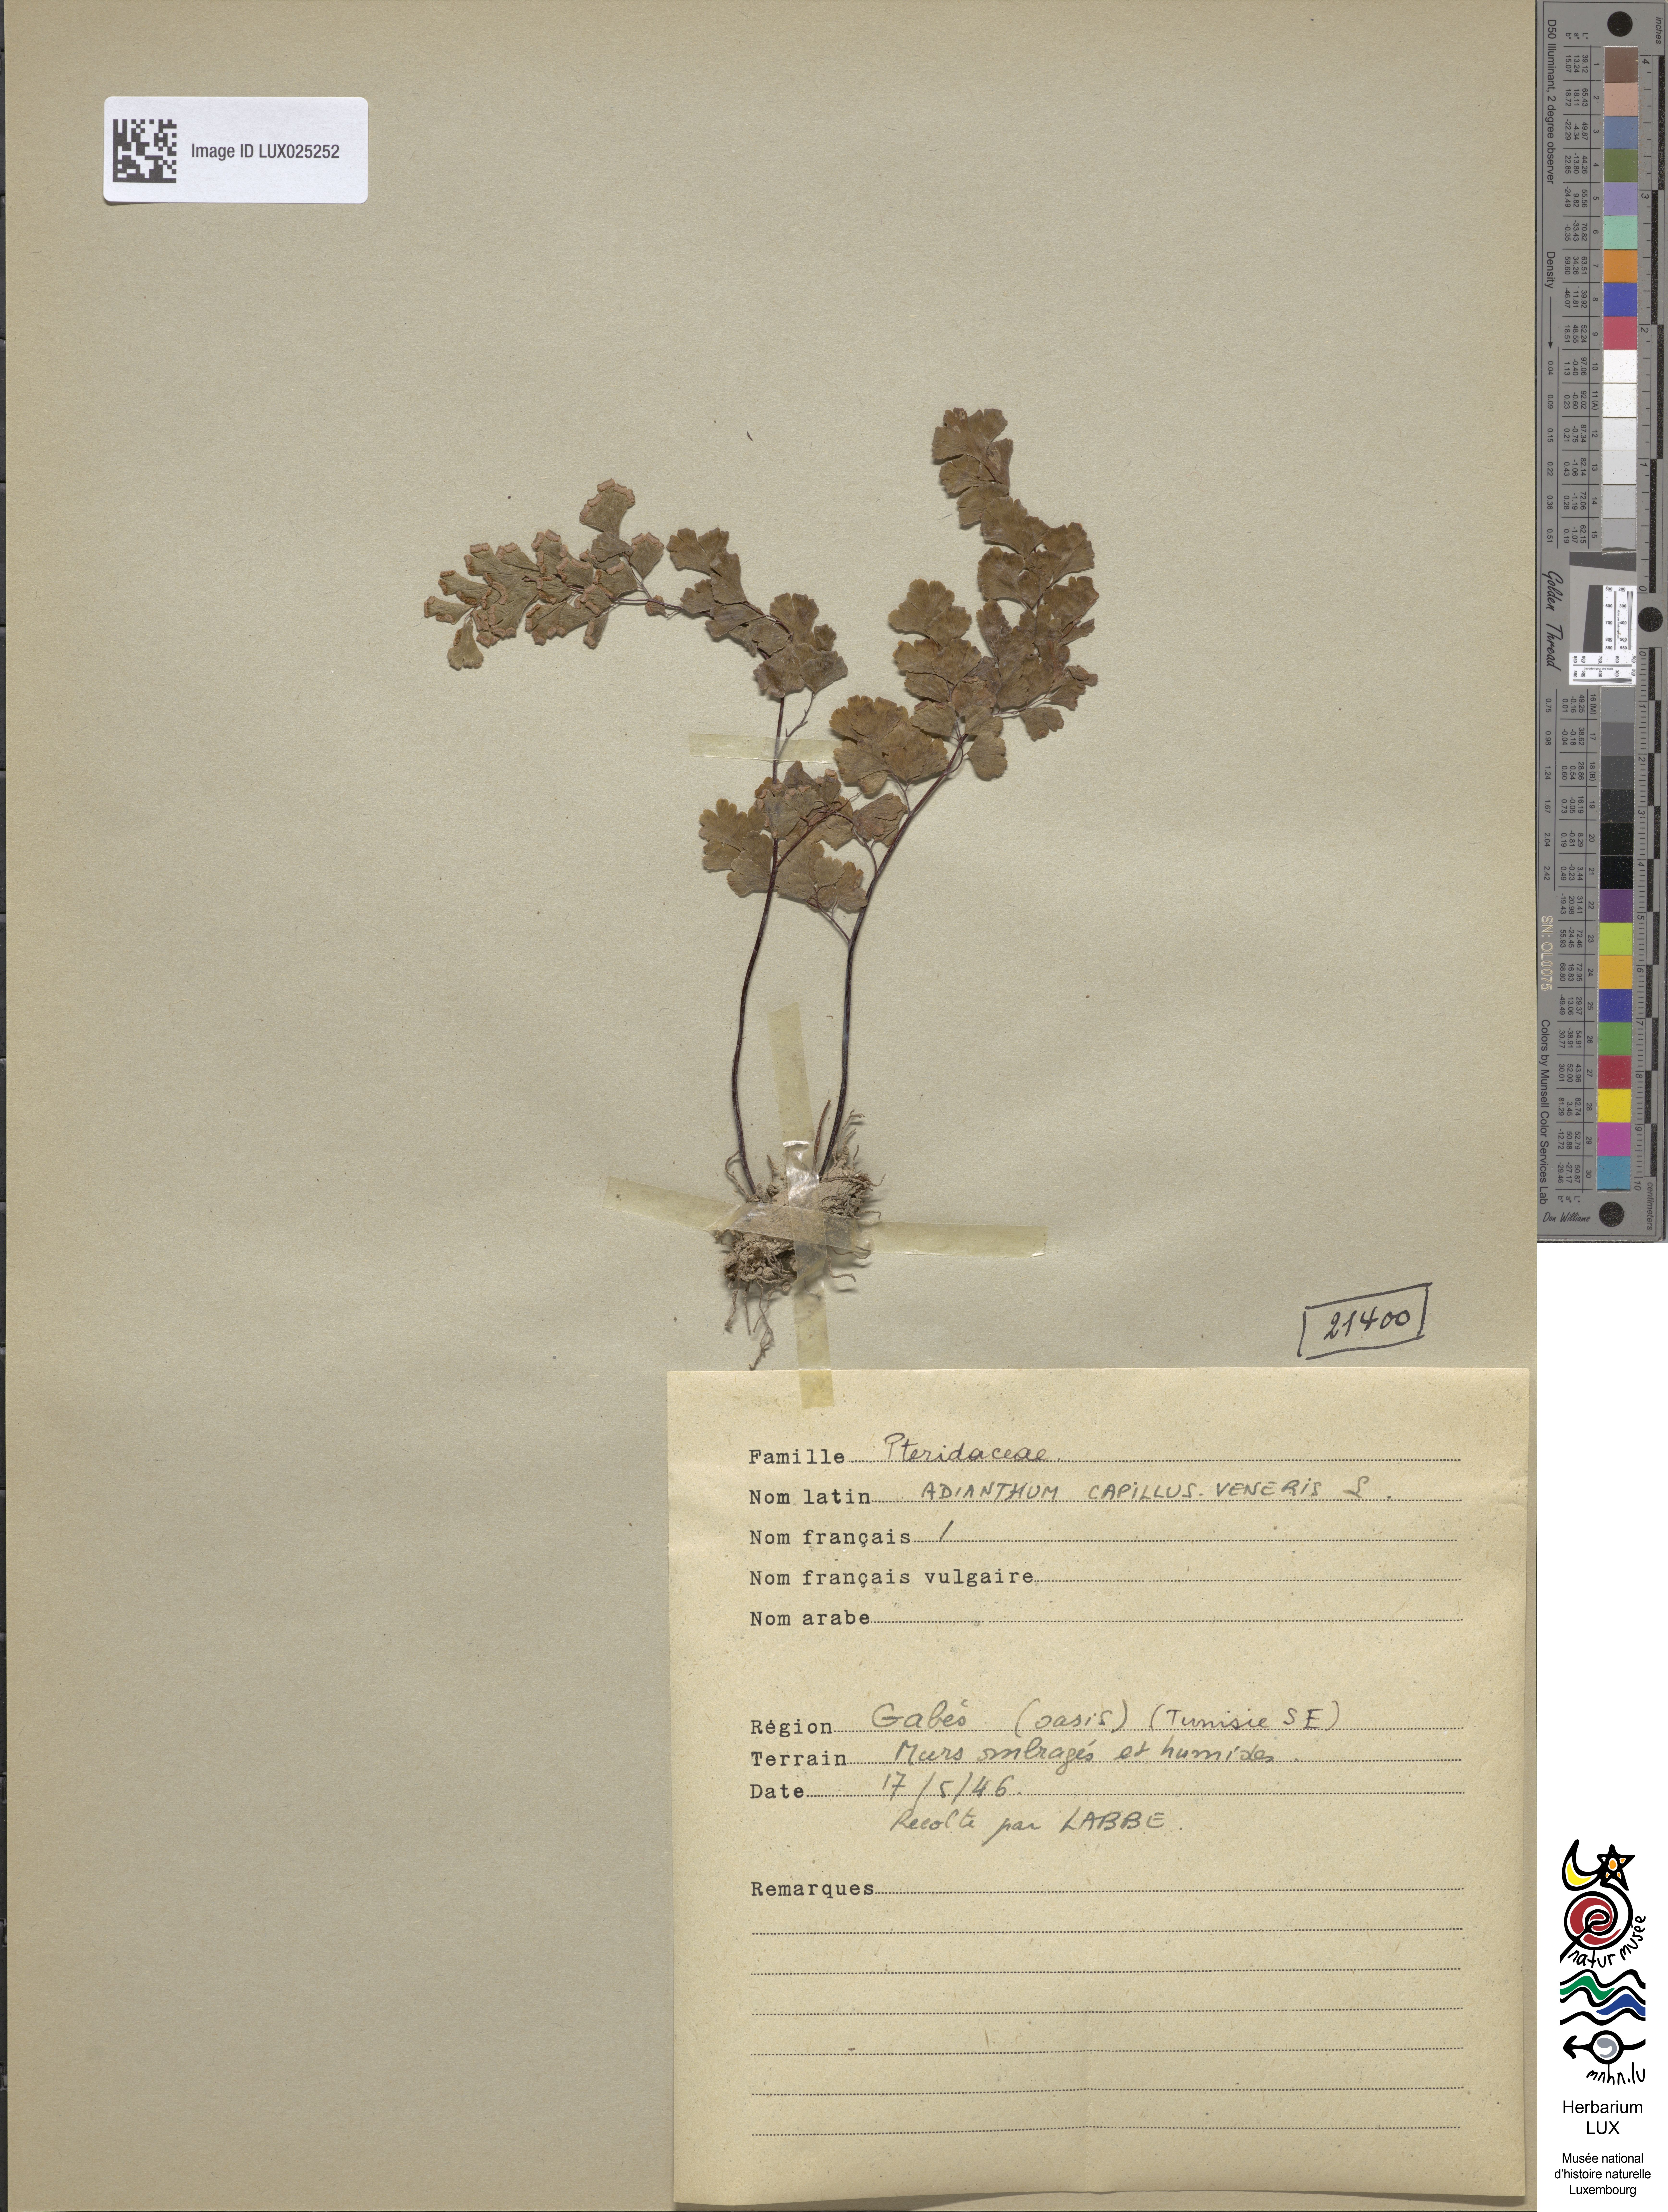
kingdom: Plantae
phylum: Tracheophyta
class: Polypodiopsida
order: Polypodiales
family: Pteridaceae
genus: Adiantum
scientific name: Adiantum capillus-veneris
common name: Maidenhair fern
